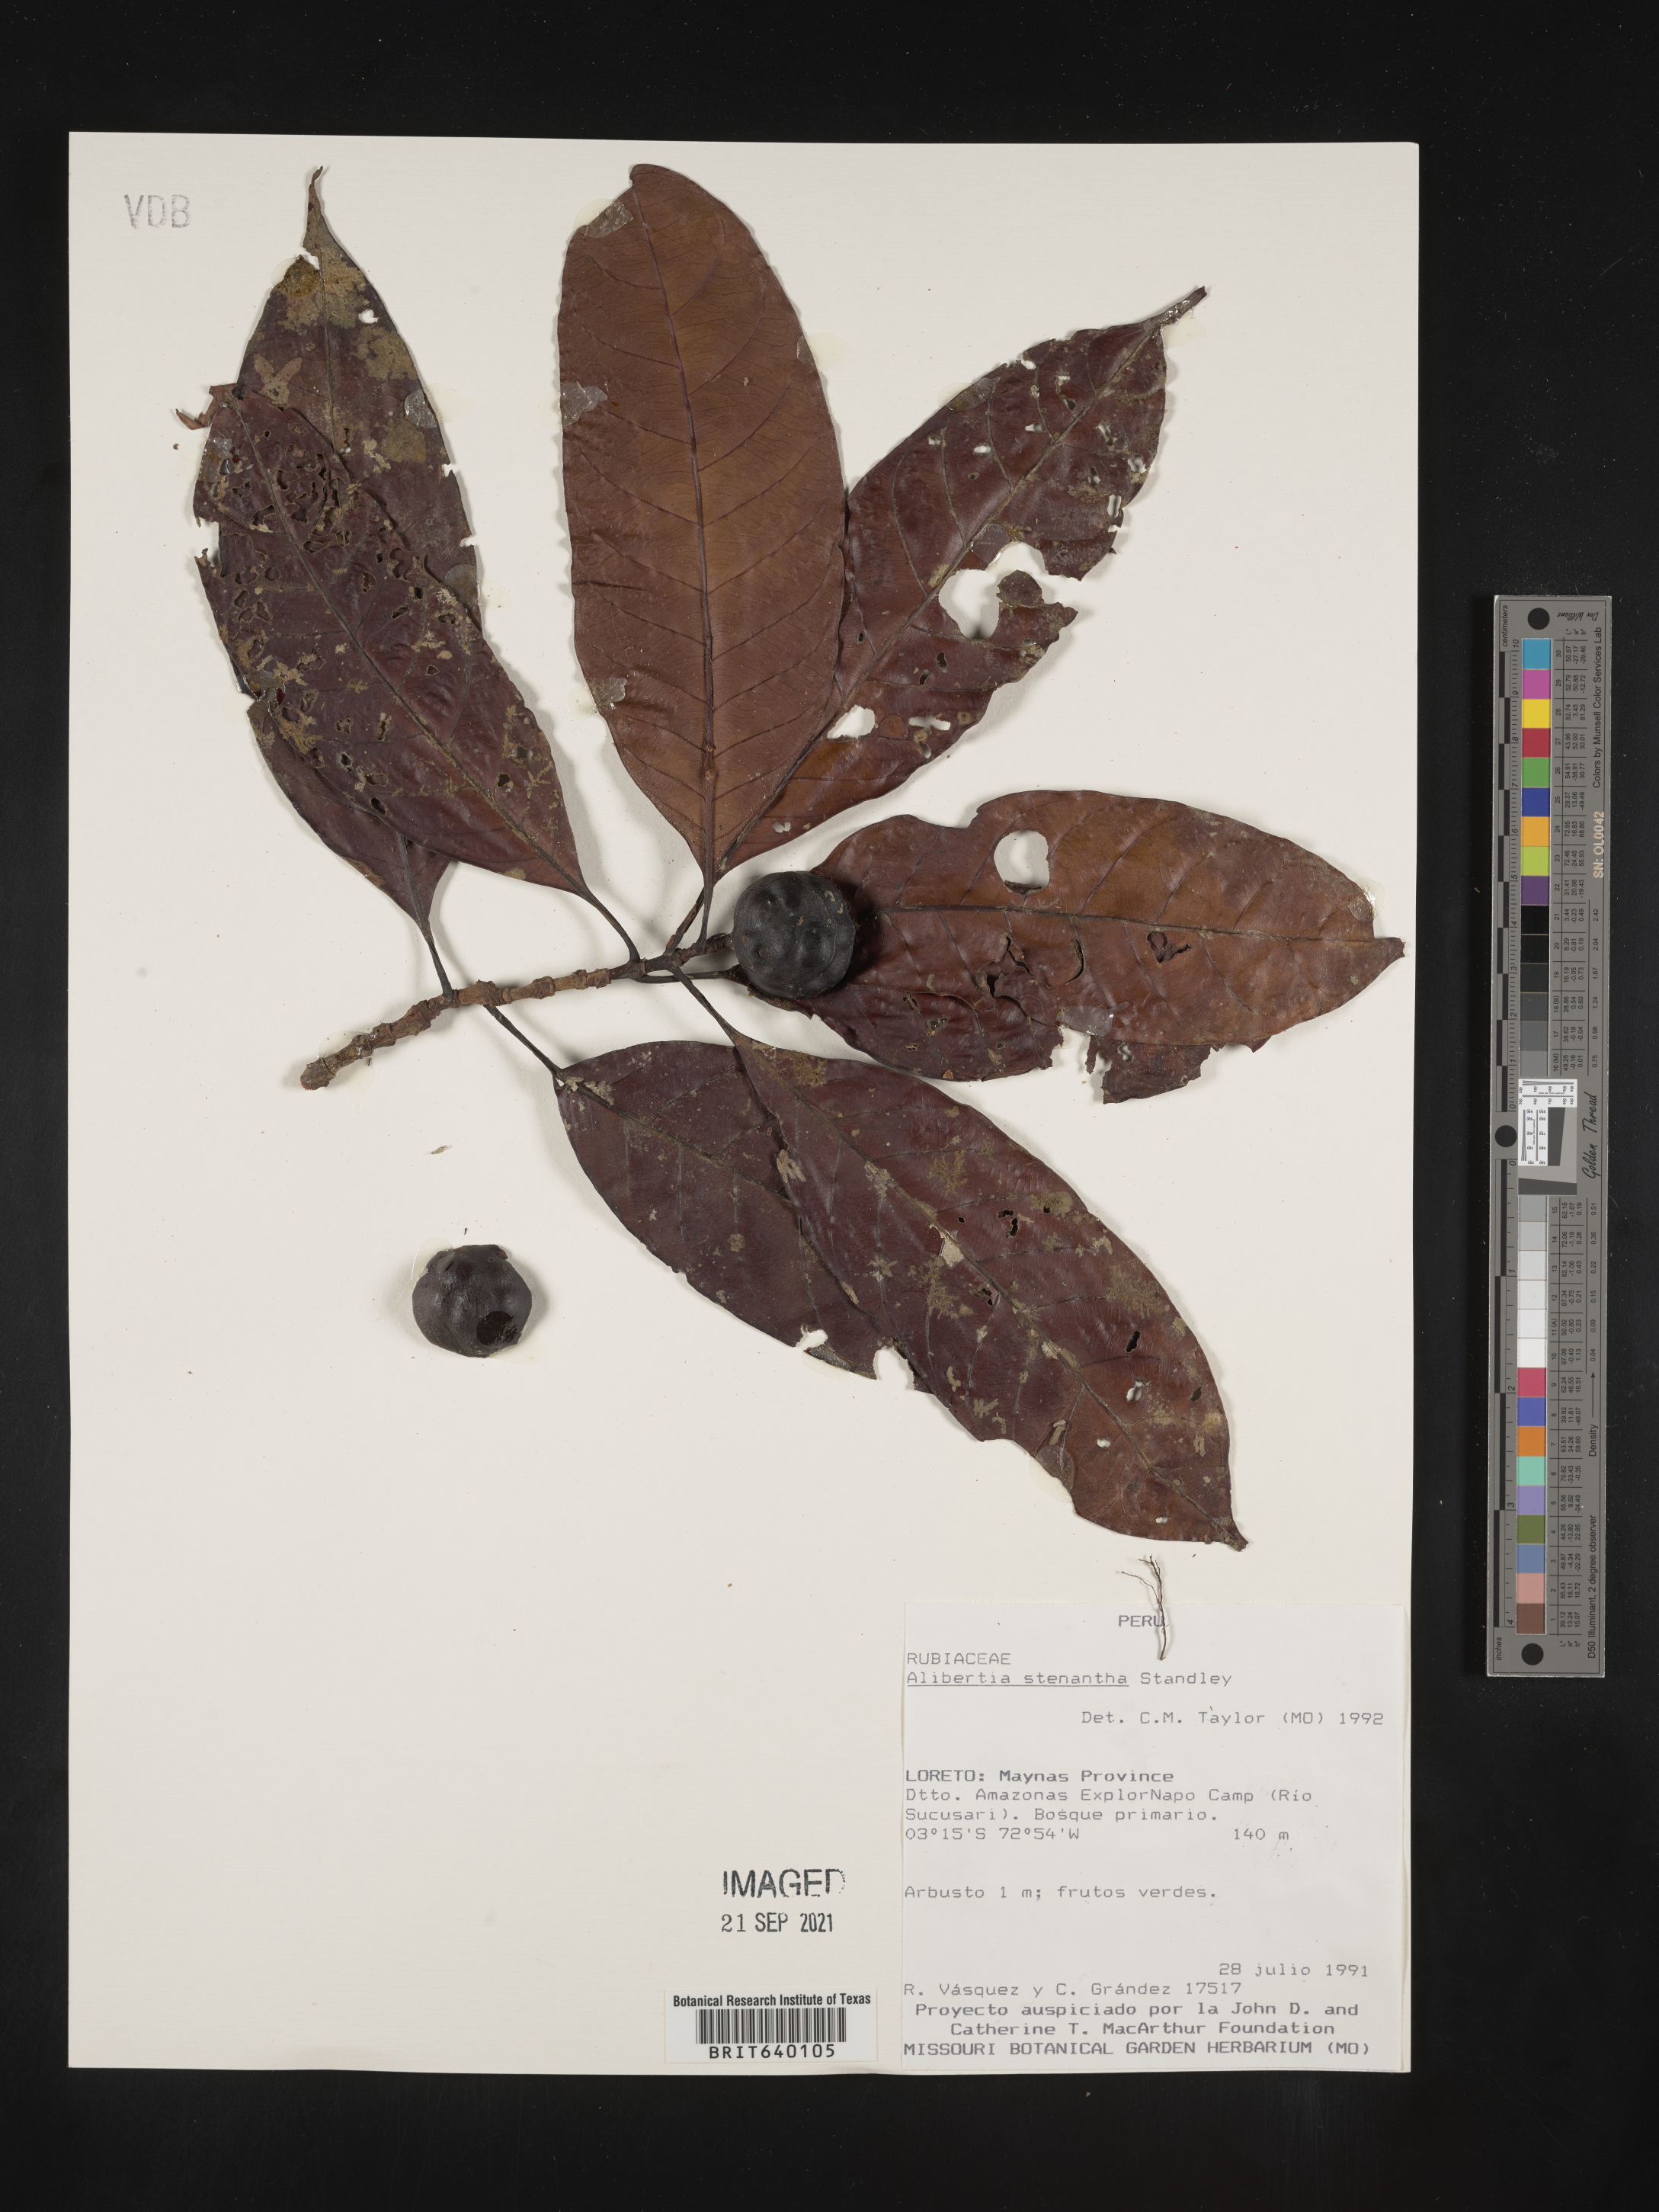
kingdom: Plantae
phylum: Tracheophyta
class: Magnoliopsida
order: Gentianales
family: Rubiaceae
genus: Alibertia
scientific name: Alibertia
